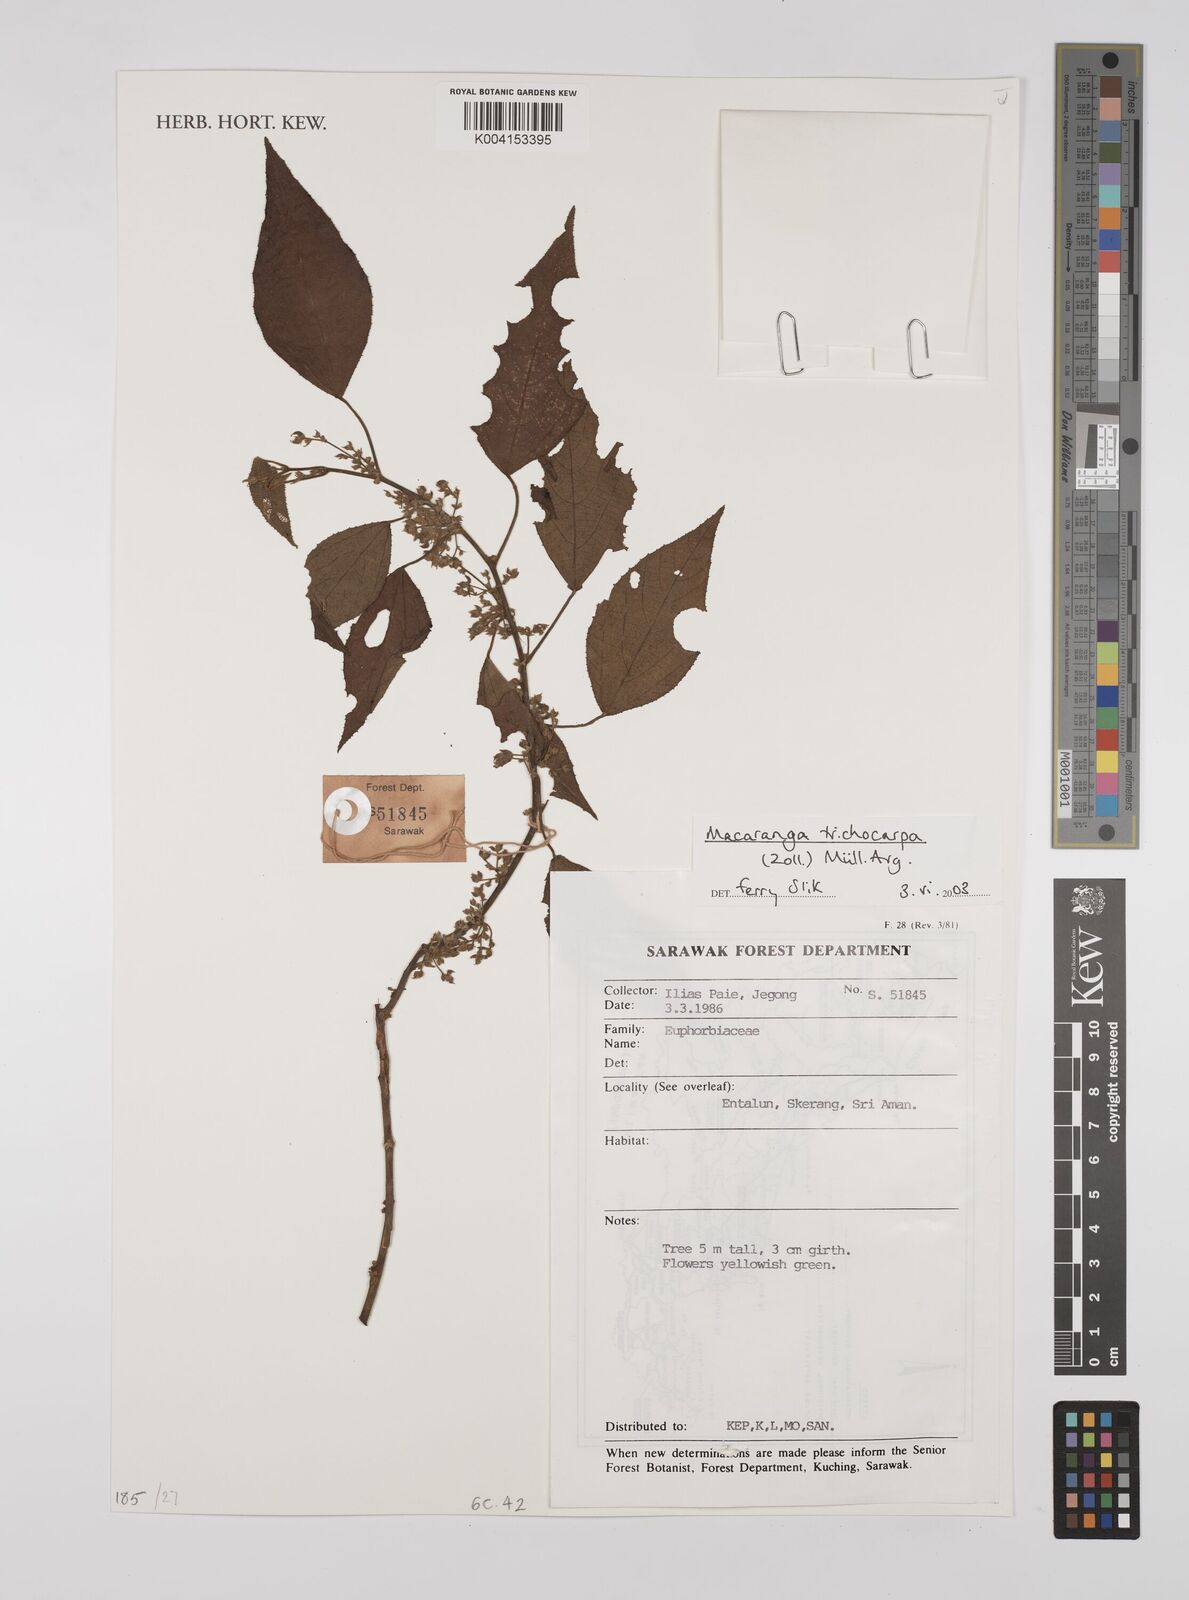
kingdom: Plantae
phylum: Tracheophyta
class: Magnoliopsida
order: Malpighiales
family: Euphorbiaceae
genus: Macaranga
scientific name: Macaranga trichocarpa
